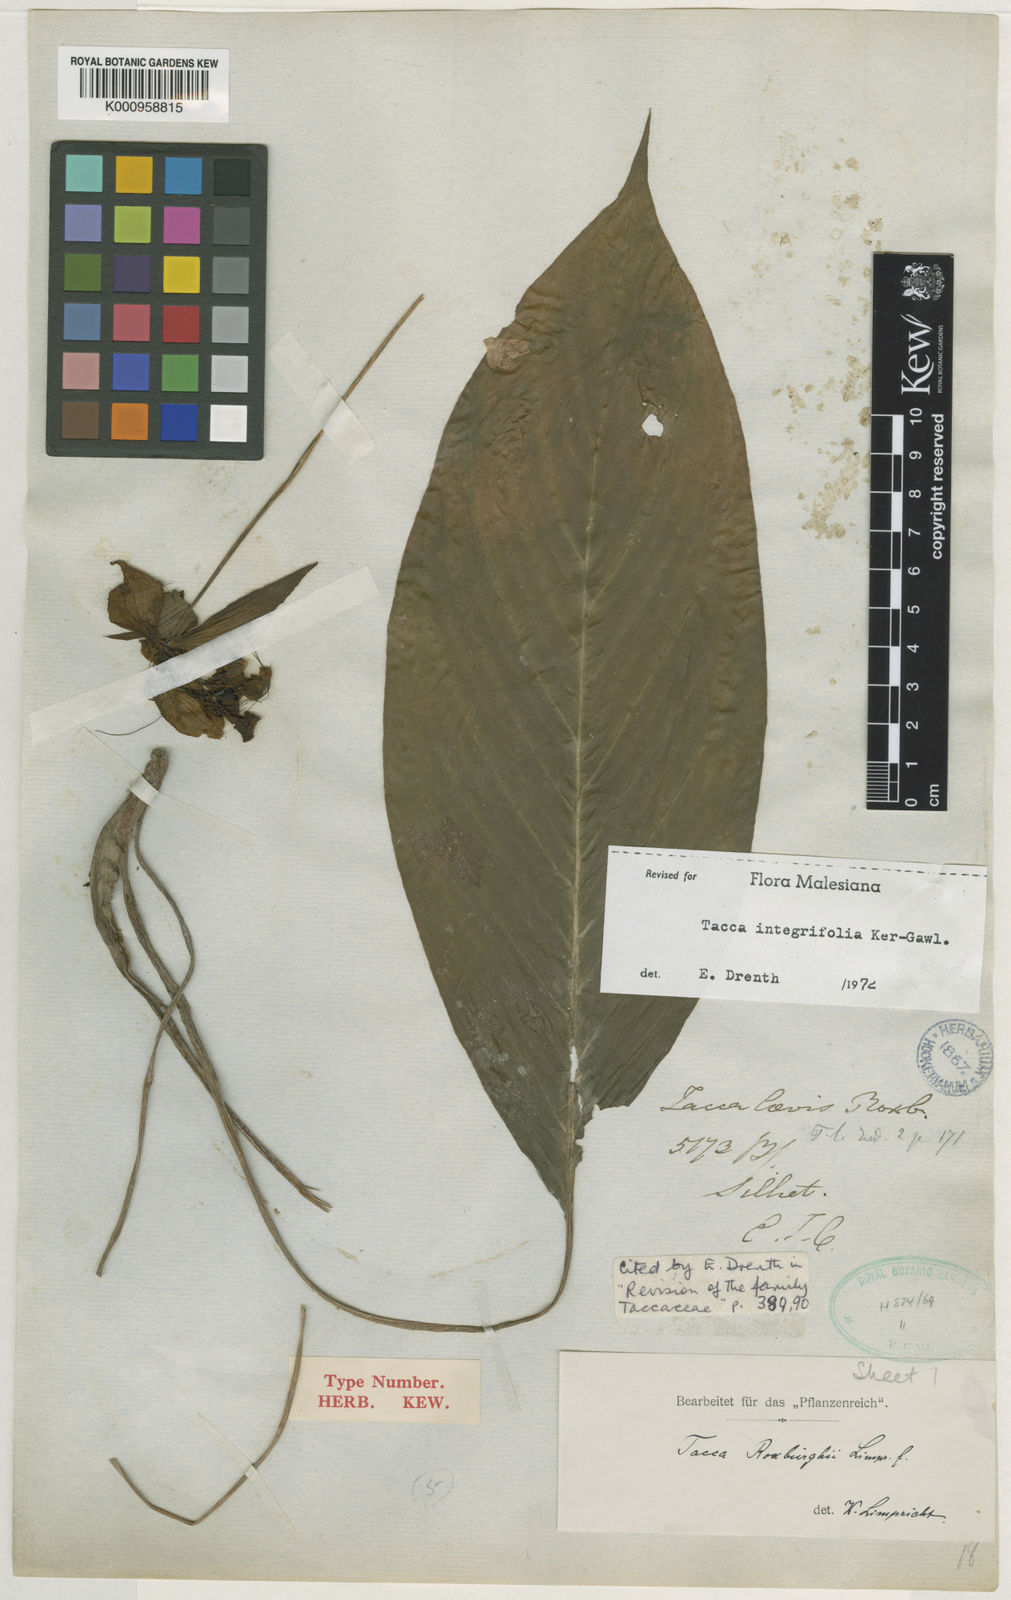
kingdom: Plantae
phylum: Tracheophyta
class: Liliopsida
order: Dioscoreales
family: Dioscoreaceae
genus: Tacca
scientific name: Tacca integrifolia
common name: Batplant
